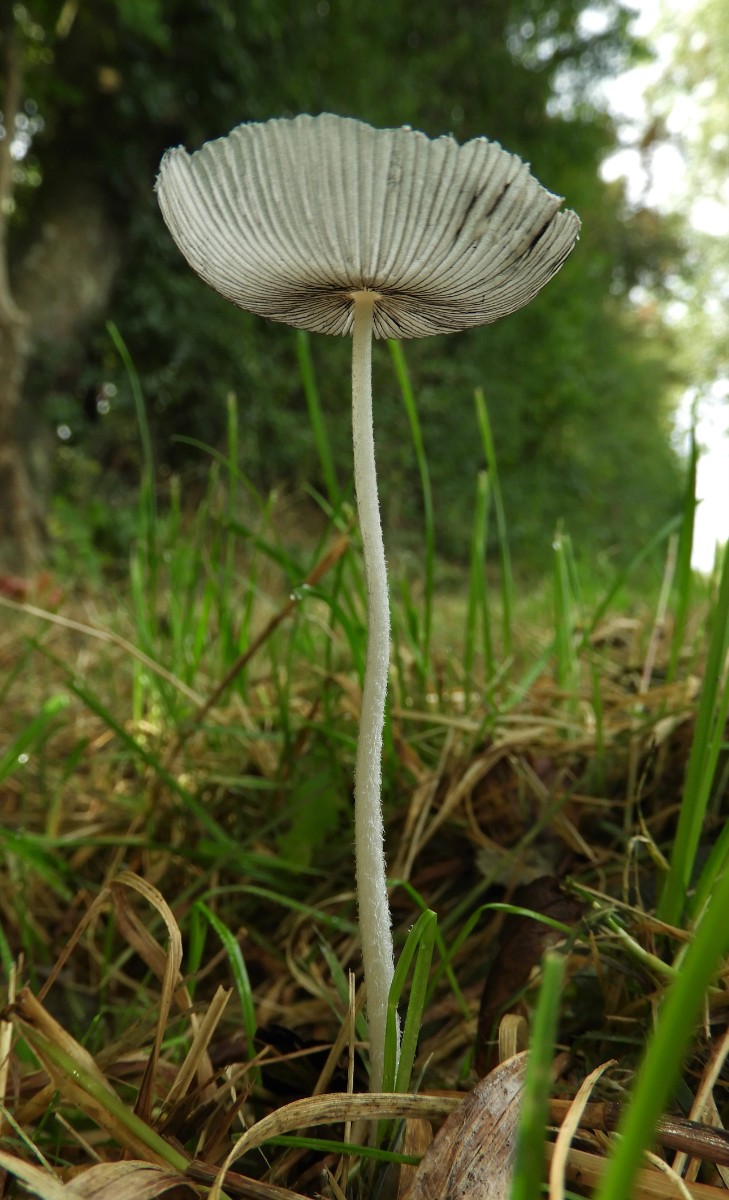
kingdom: Fungi
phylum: Basidiomycota
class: Agaricomycetes
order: Agaricales
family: Psathyrellaceae
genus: Coprinopsis
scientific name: Coprinopsis lagopus
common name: dunstokket blækhat
